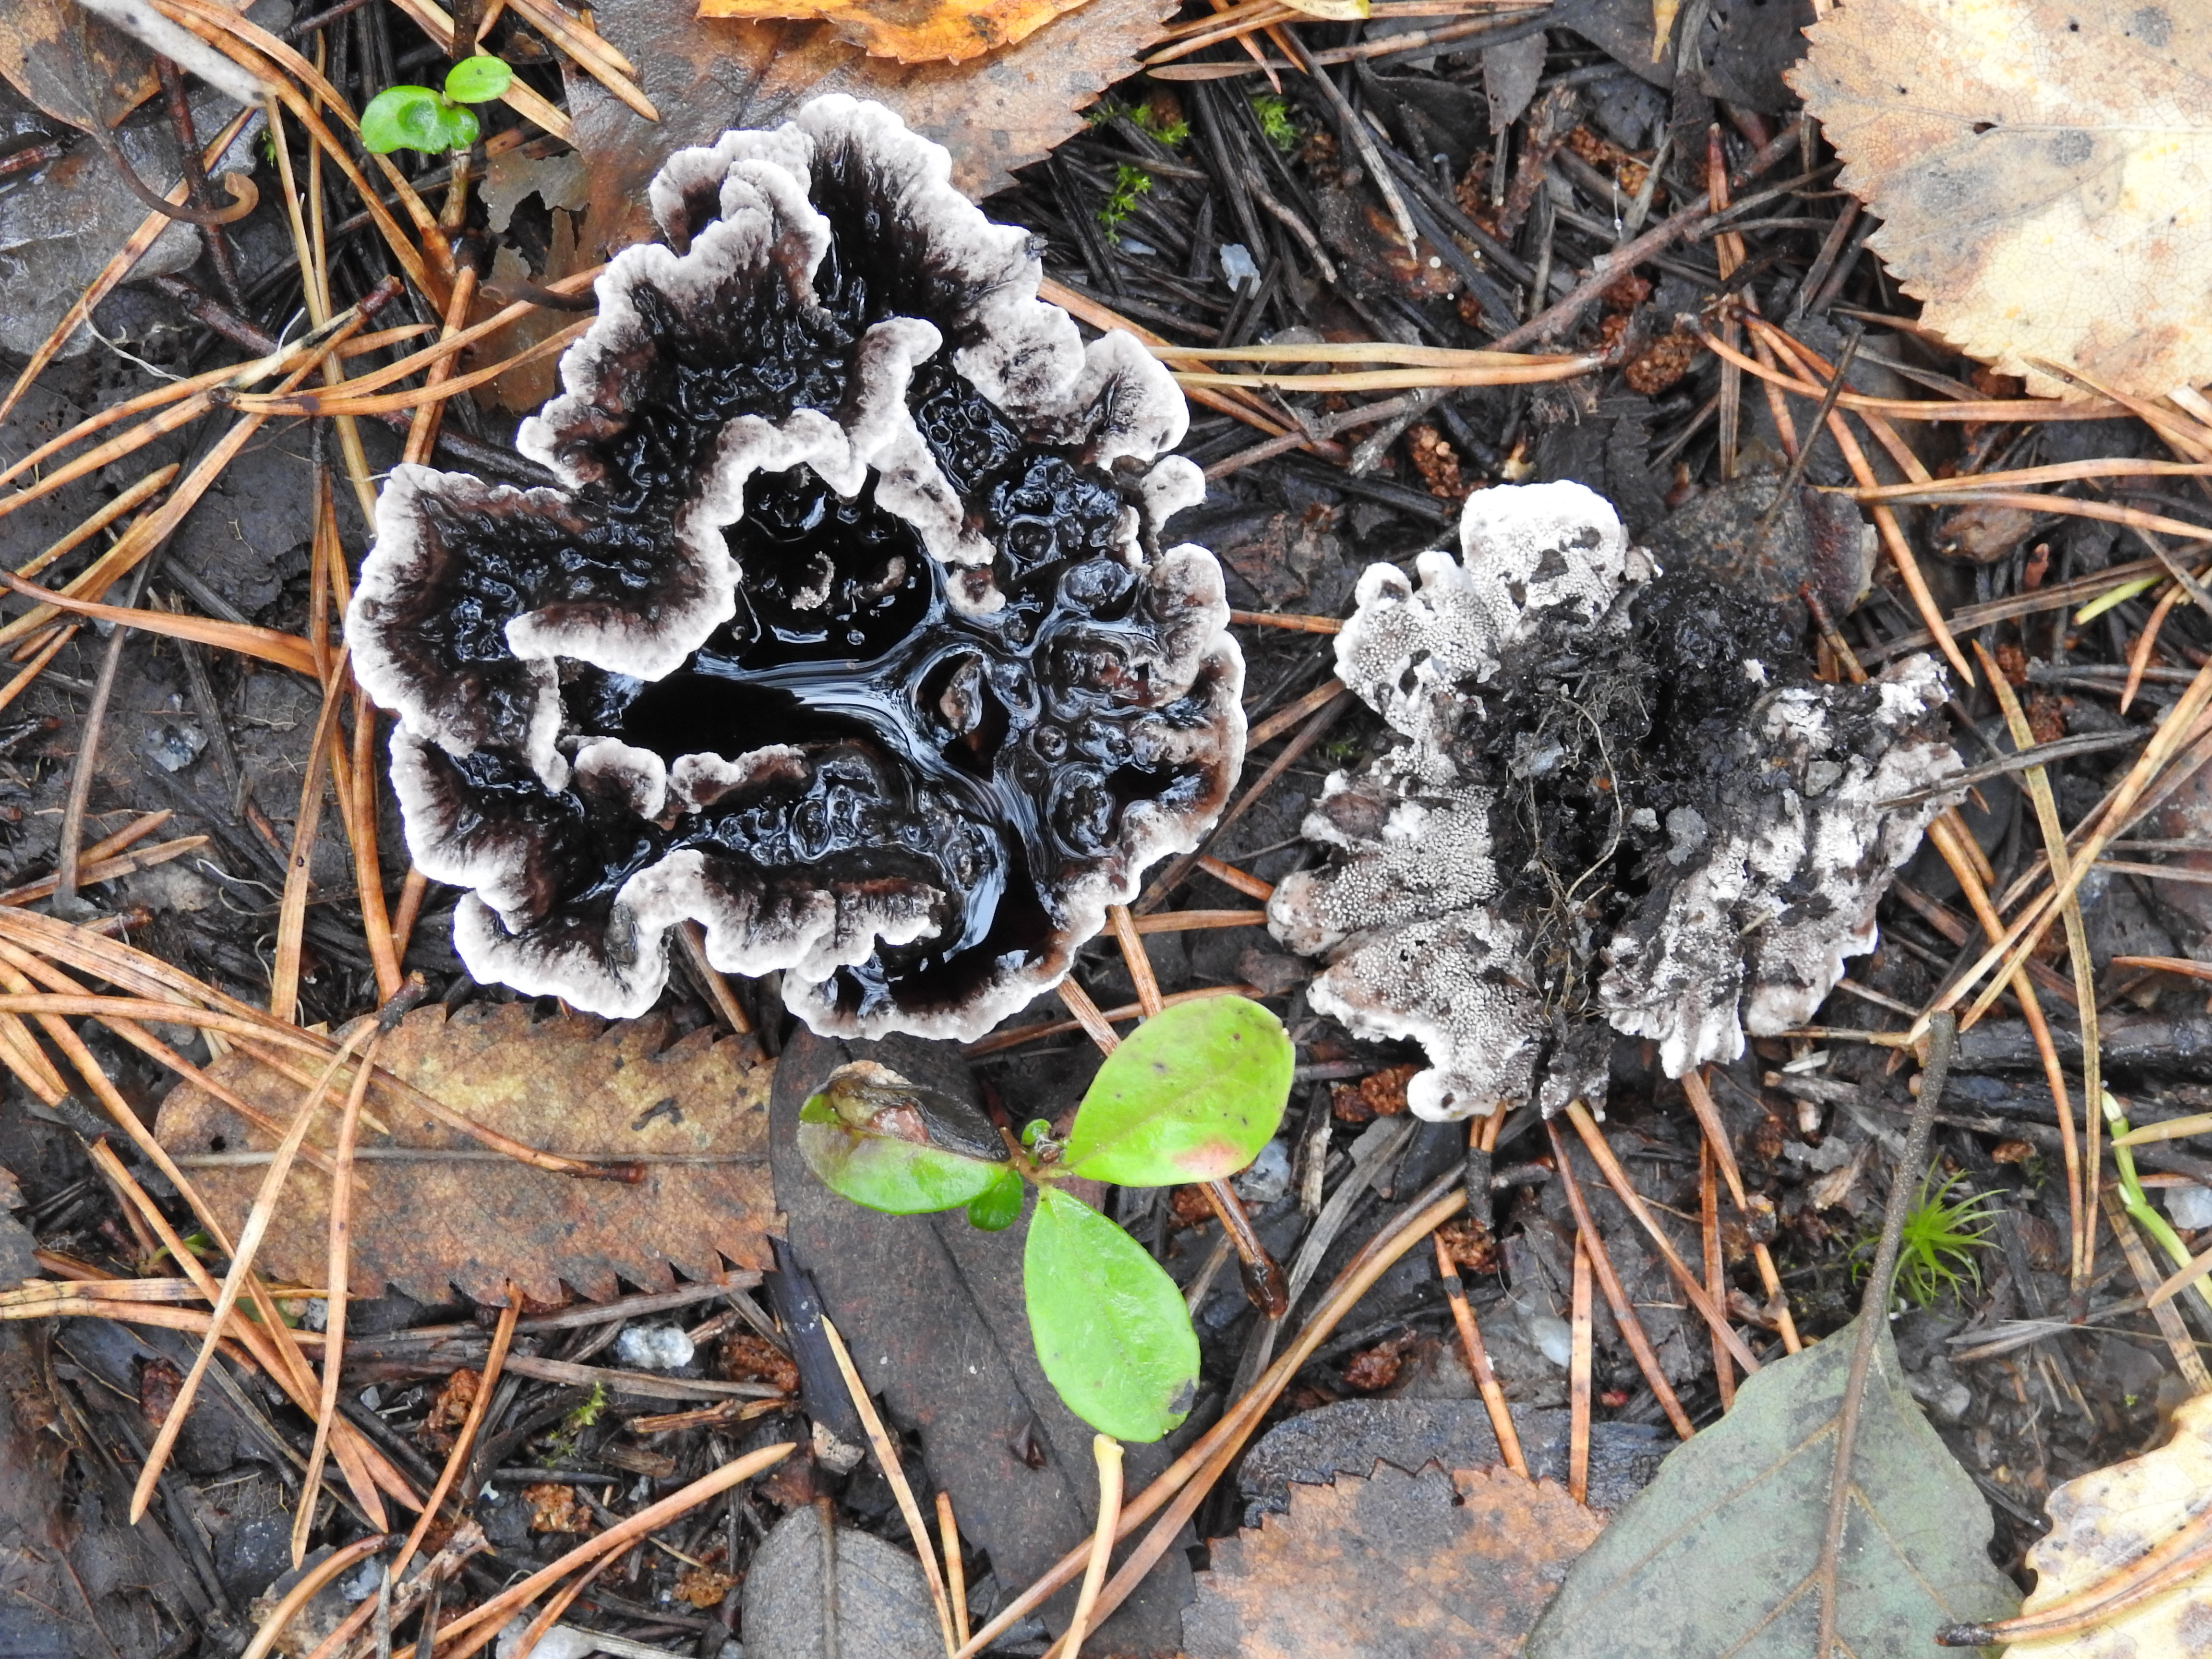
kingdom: Fungi
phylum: Basidiomycota
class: Agaricomycetes
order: Thelephorales
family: Thelephoraceae
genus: Phellodon
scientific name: Phellodon tomentosus
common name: Woolly tooth
